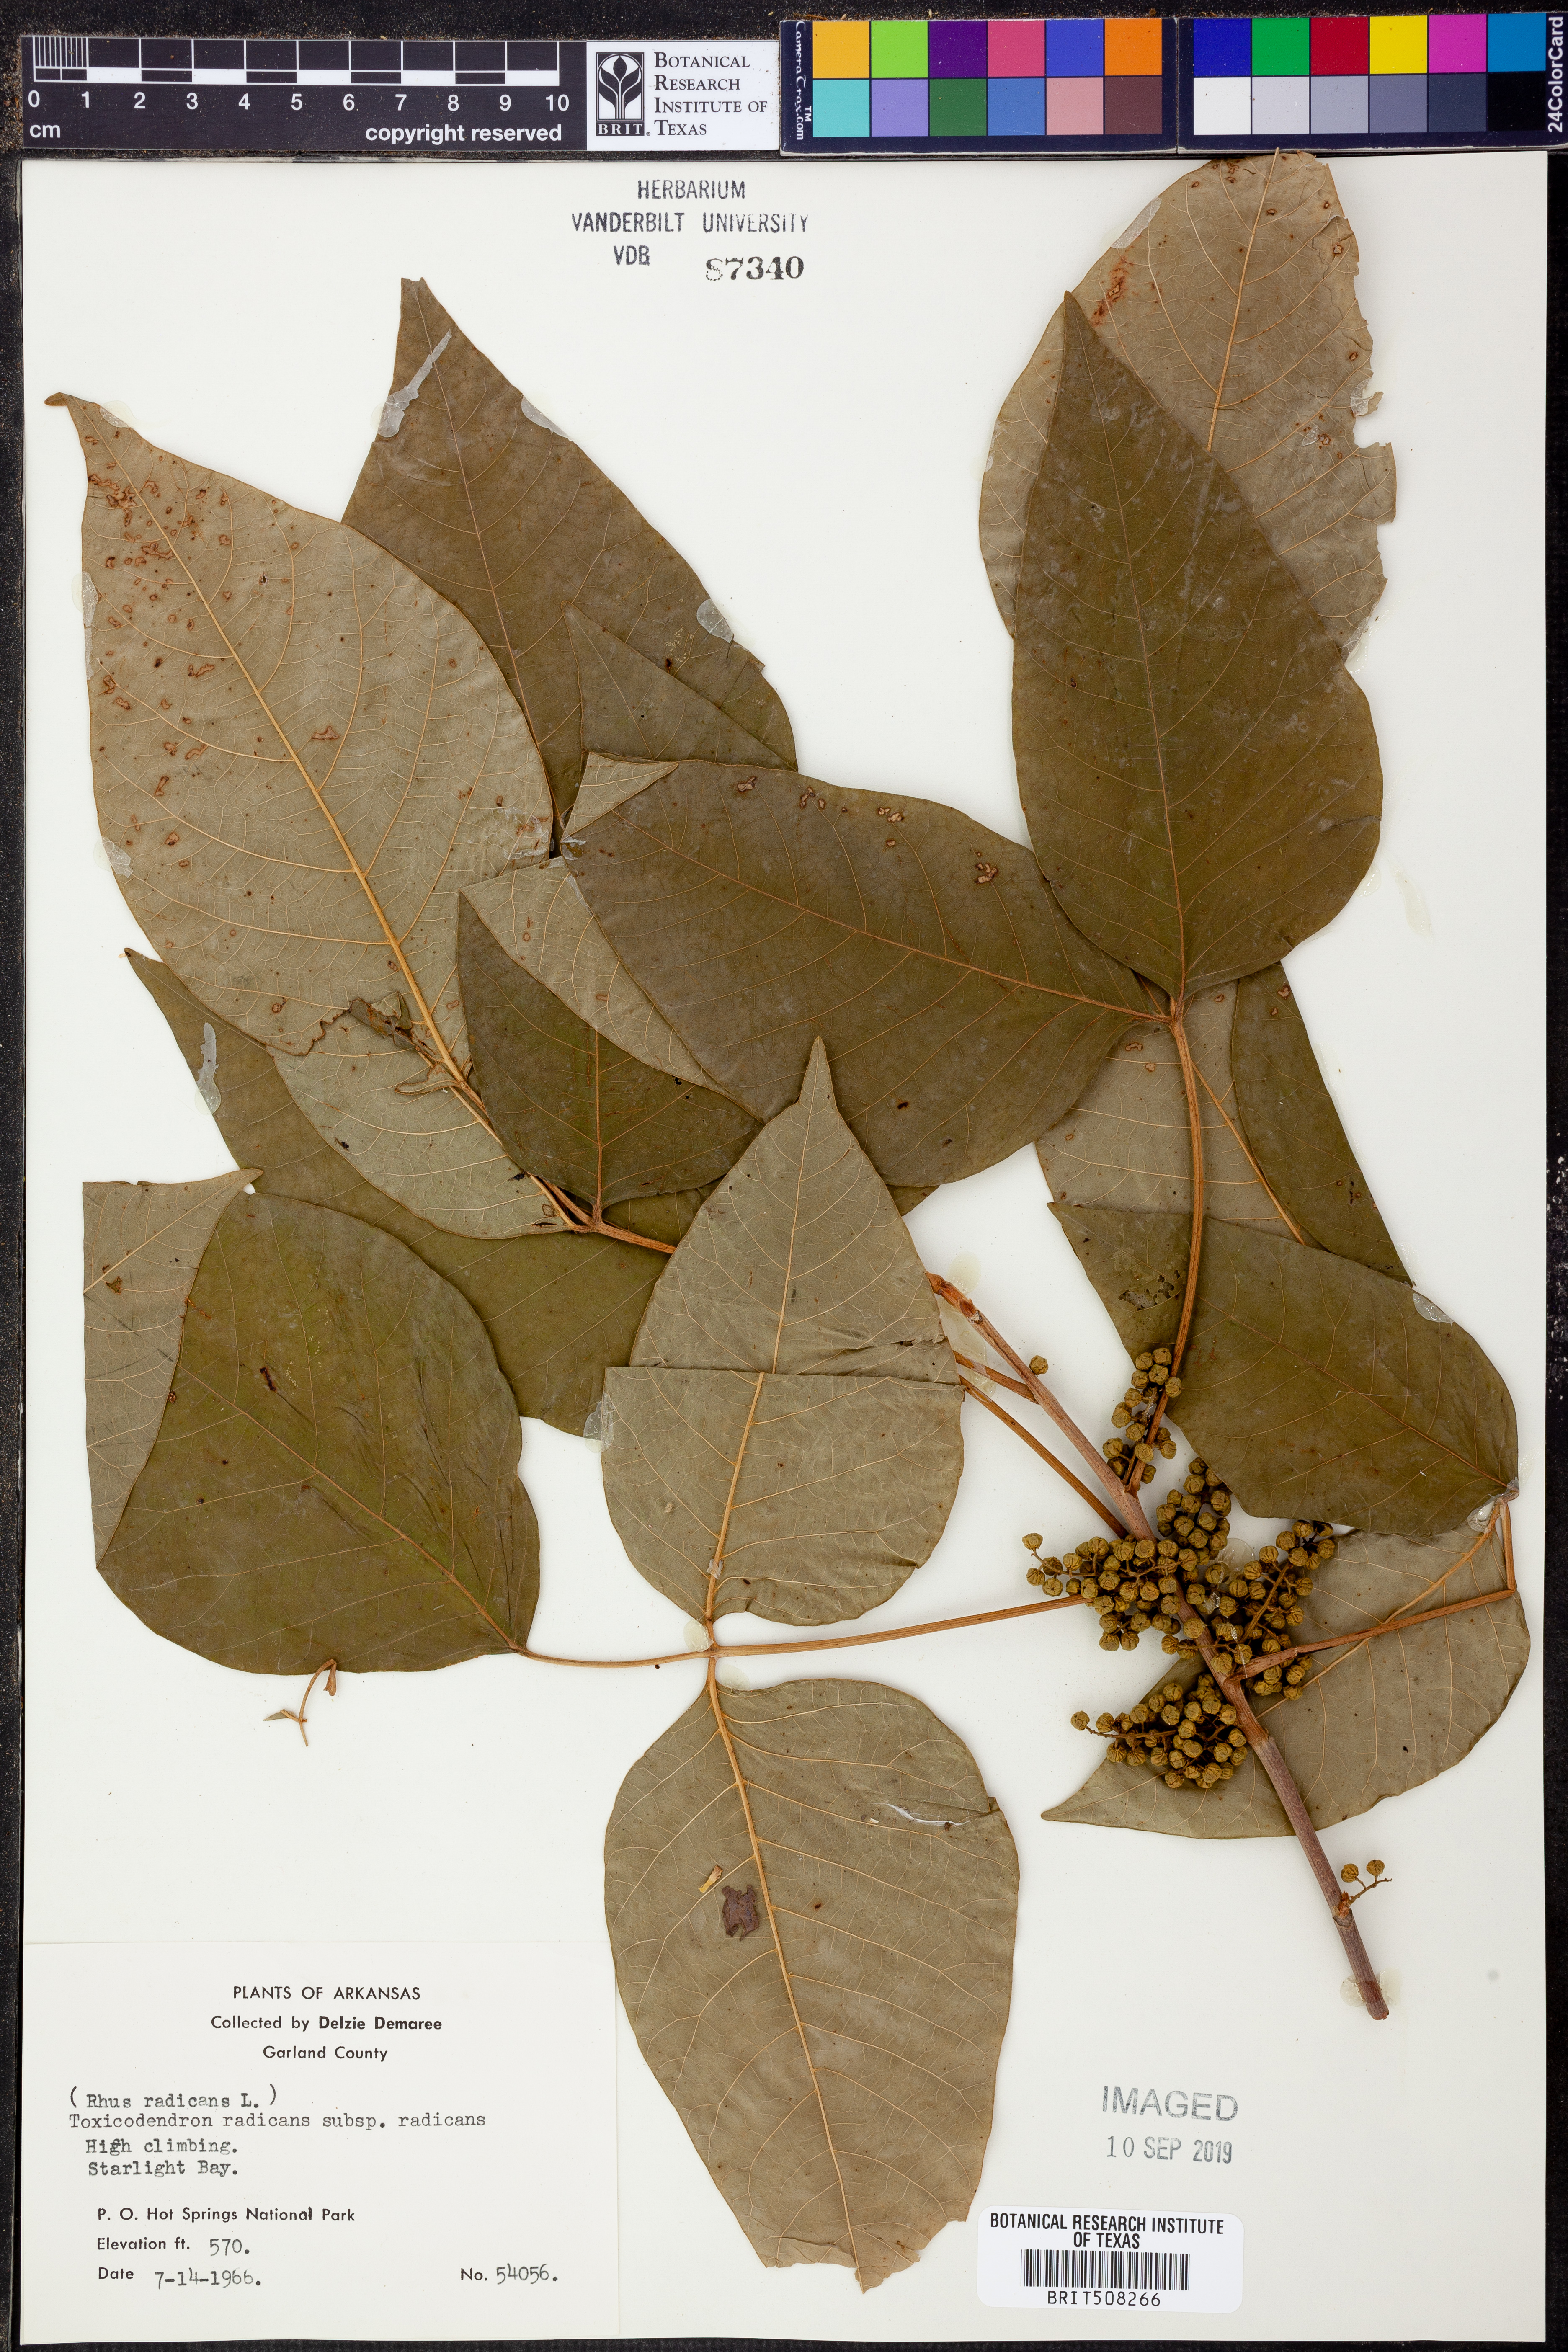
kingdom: Plantae
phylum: Tracheophyta
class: Magnoliopsida
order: Sapindales
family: Anacardiaceae
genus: Toxicodendron
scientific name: Toxicodendron radicans
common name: Poison ivy
